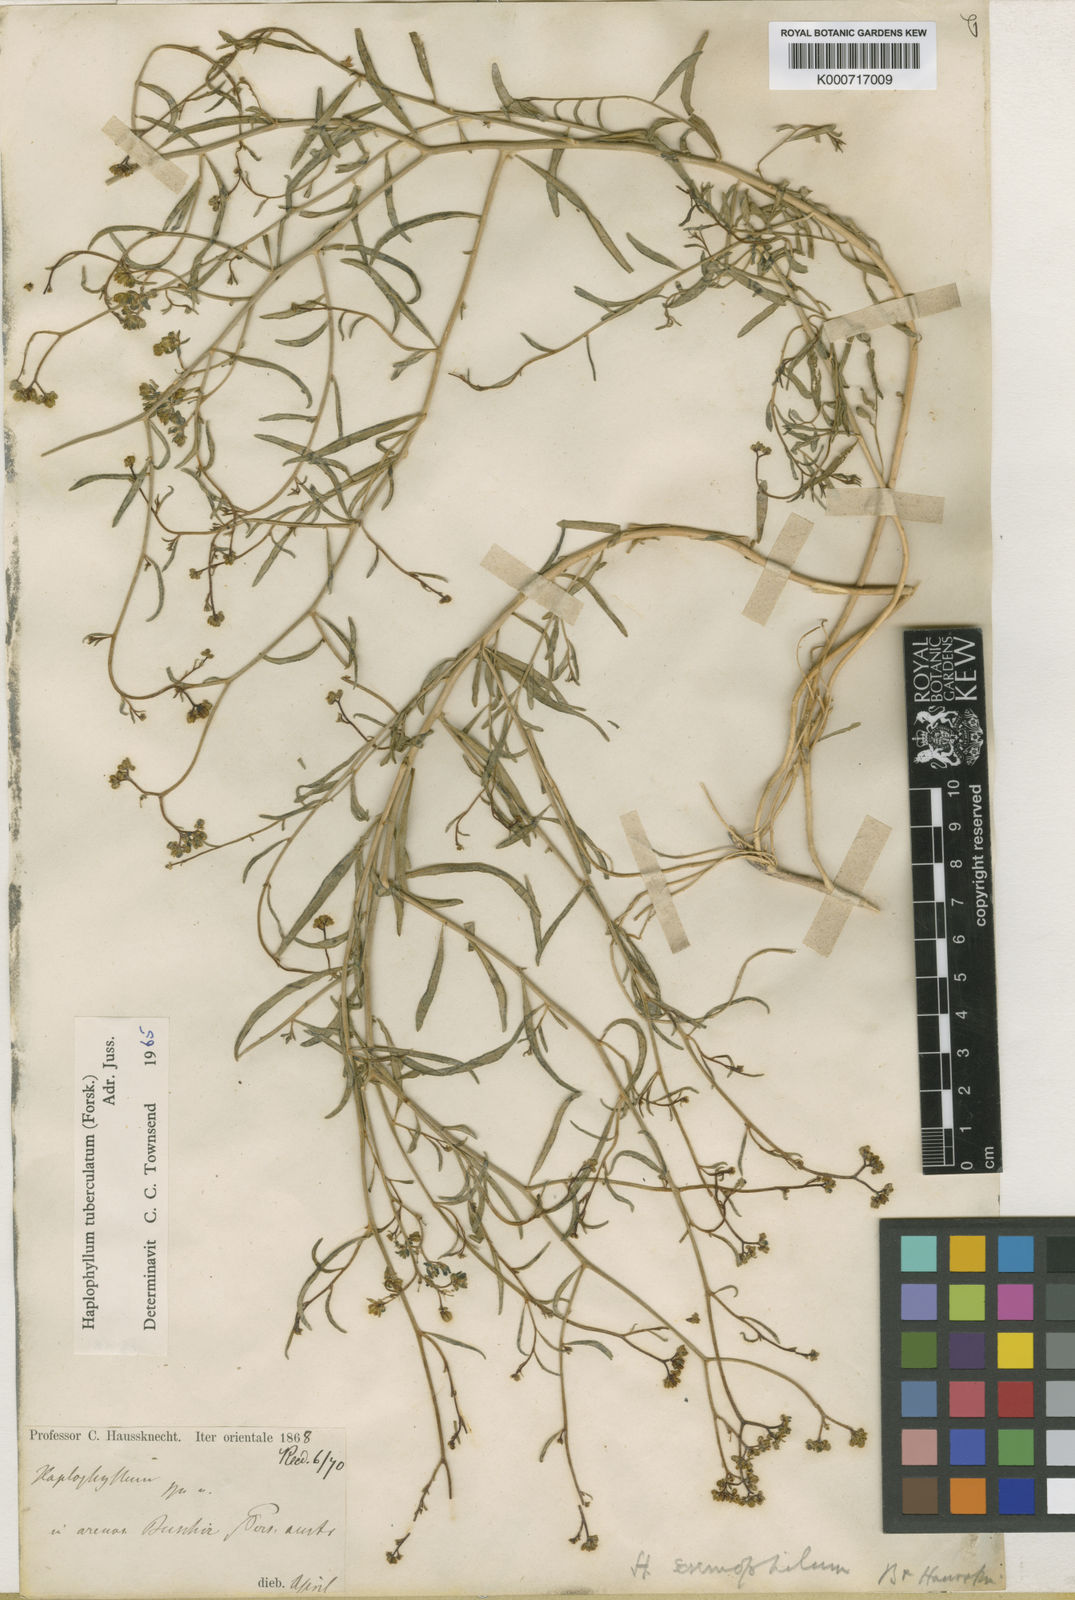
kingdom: Plantae
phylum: Tracheophyta
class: Magnoliopsida
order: Sapindales
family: Rutaceae
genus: Haplophyllum
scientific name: Haplophyllum tuberculatum
